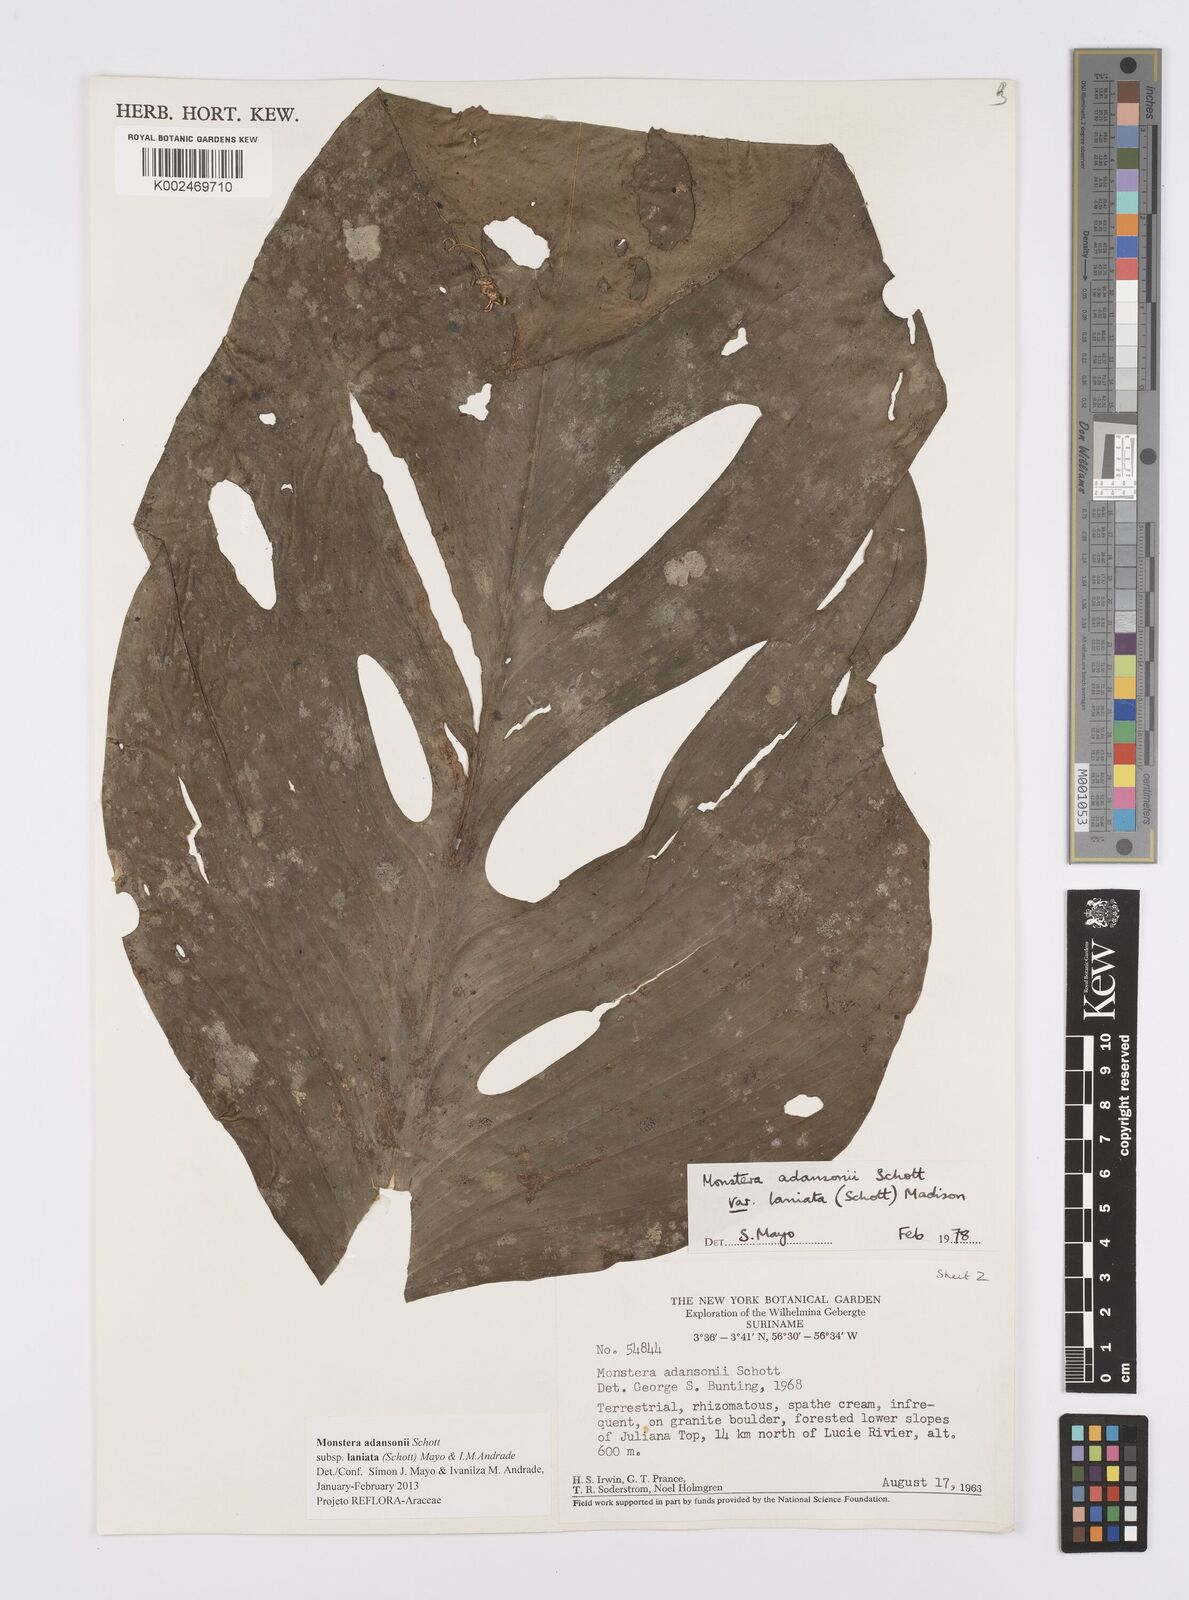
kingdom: Plantae
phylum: Tracheophyta
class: Liliopsida
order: Alismatales
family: Araceae
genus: Monstera
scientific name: Monstera adansonii
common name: Tarovine
